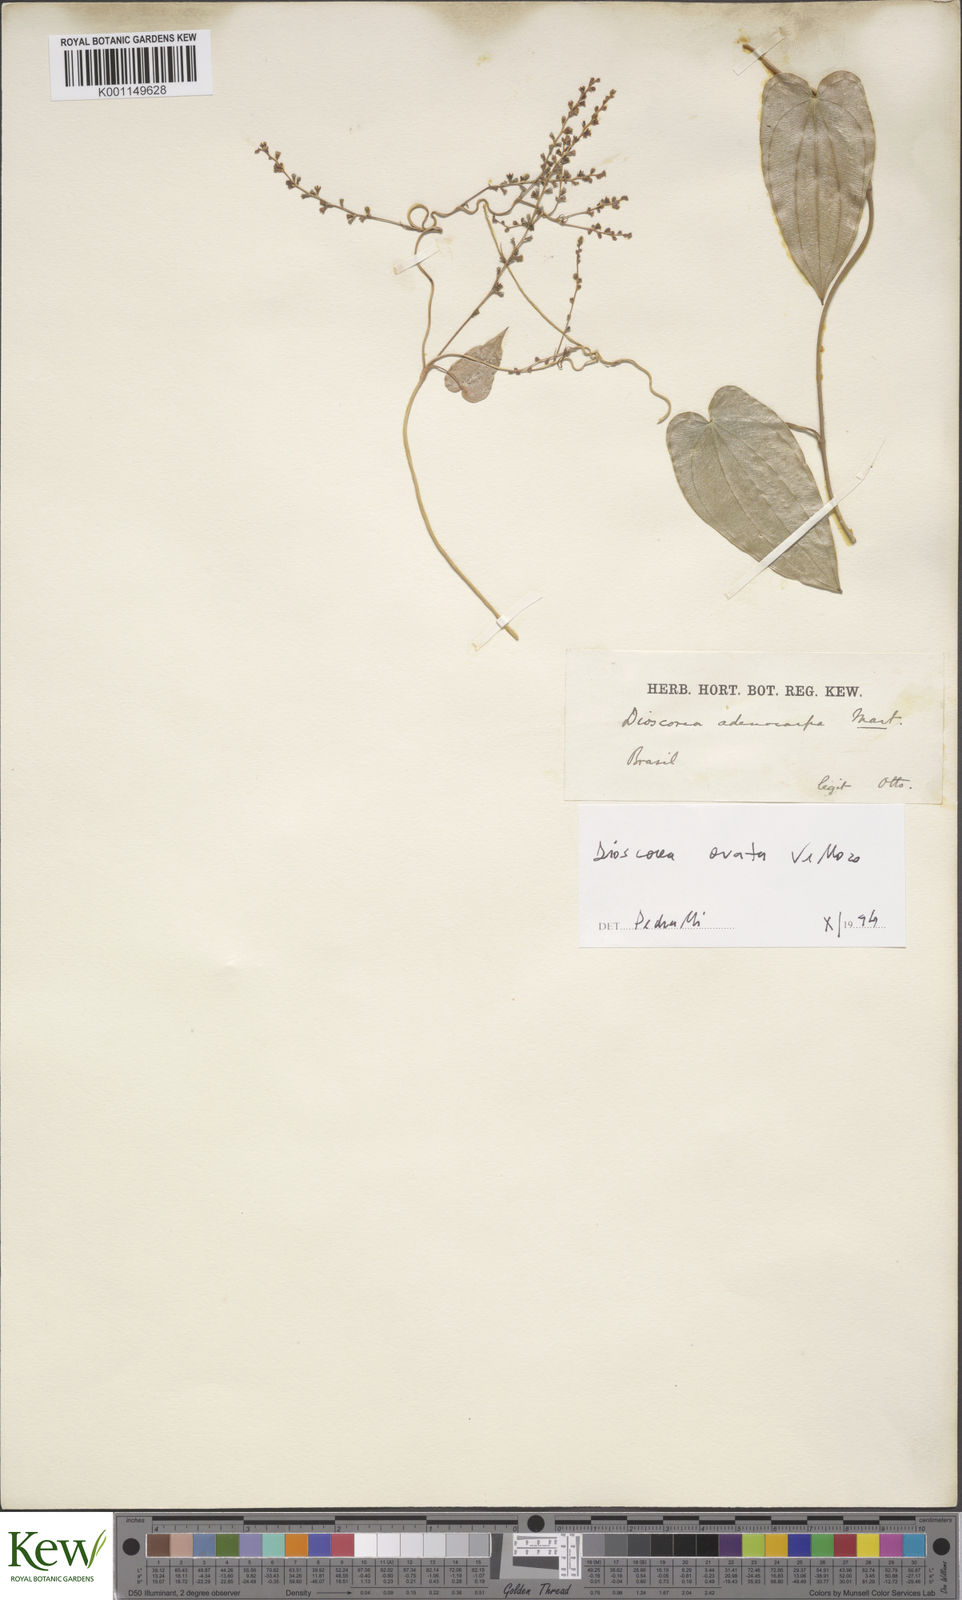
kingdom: Plantae
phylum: Tracheophyta
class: Liliopsida
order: Dioscoreales
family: Dioscoreaceae
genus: Dioscorea
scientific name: Dioscorea ovata
